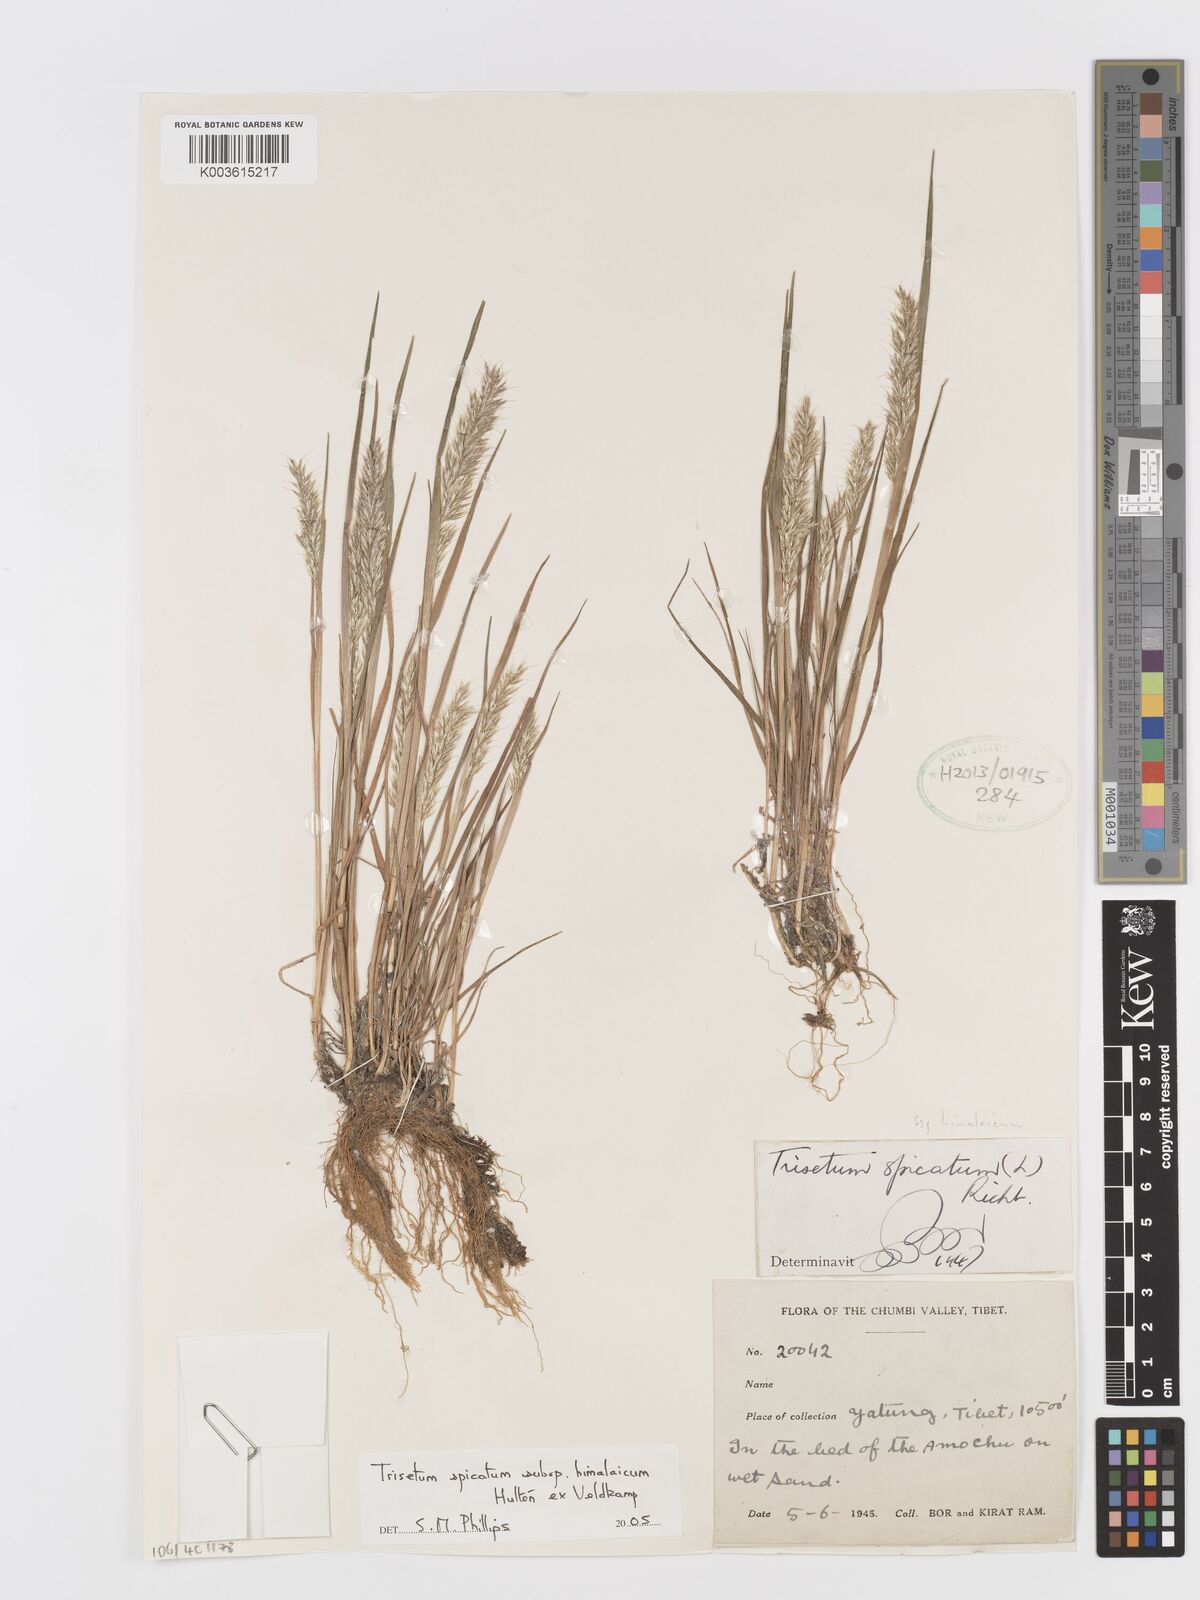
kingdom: Plantae
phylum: Tracheophyta
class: Liliopsida
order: Poales
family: Poaceae
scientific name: Poaceae
